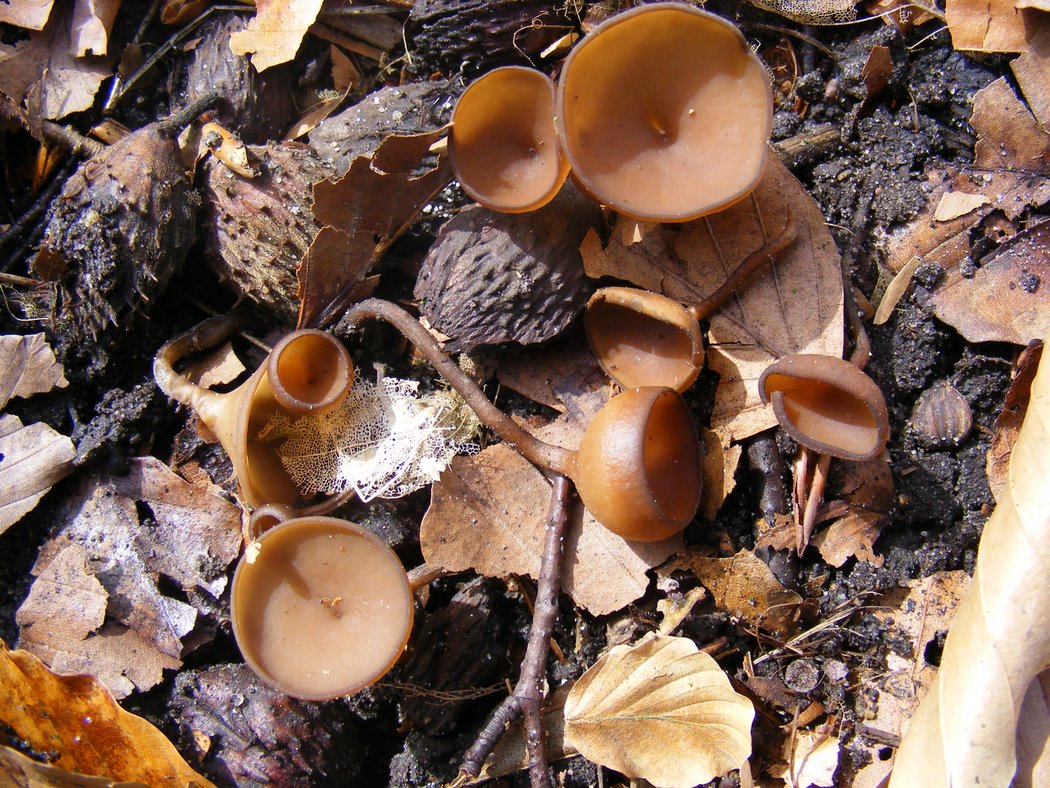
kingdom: Fungi
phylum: Ascomycota
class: Leotiomycetes
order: Helotiales
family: Sclerotiniaceae
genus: Dumontinia
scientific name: Dumontinia tuberosa
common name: anemone-knoldskive
